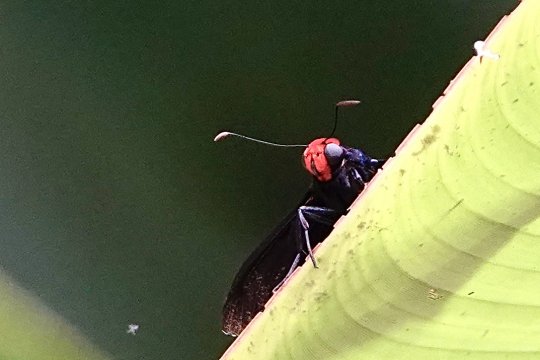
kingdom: Animalia
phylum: Arthropoda
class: Insecta
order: Lepidoptera
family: Hesperiidae
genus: Pyrrhopyge
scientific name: Pyrrhopyge phidias
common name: Red-headed Firetip
